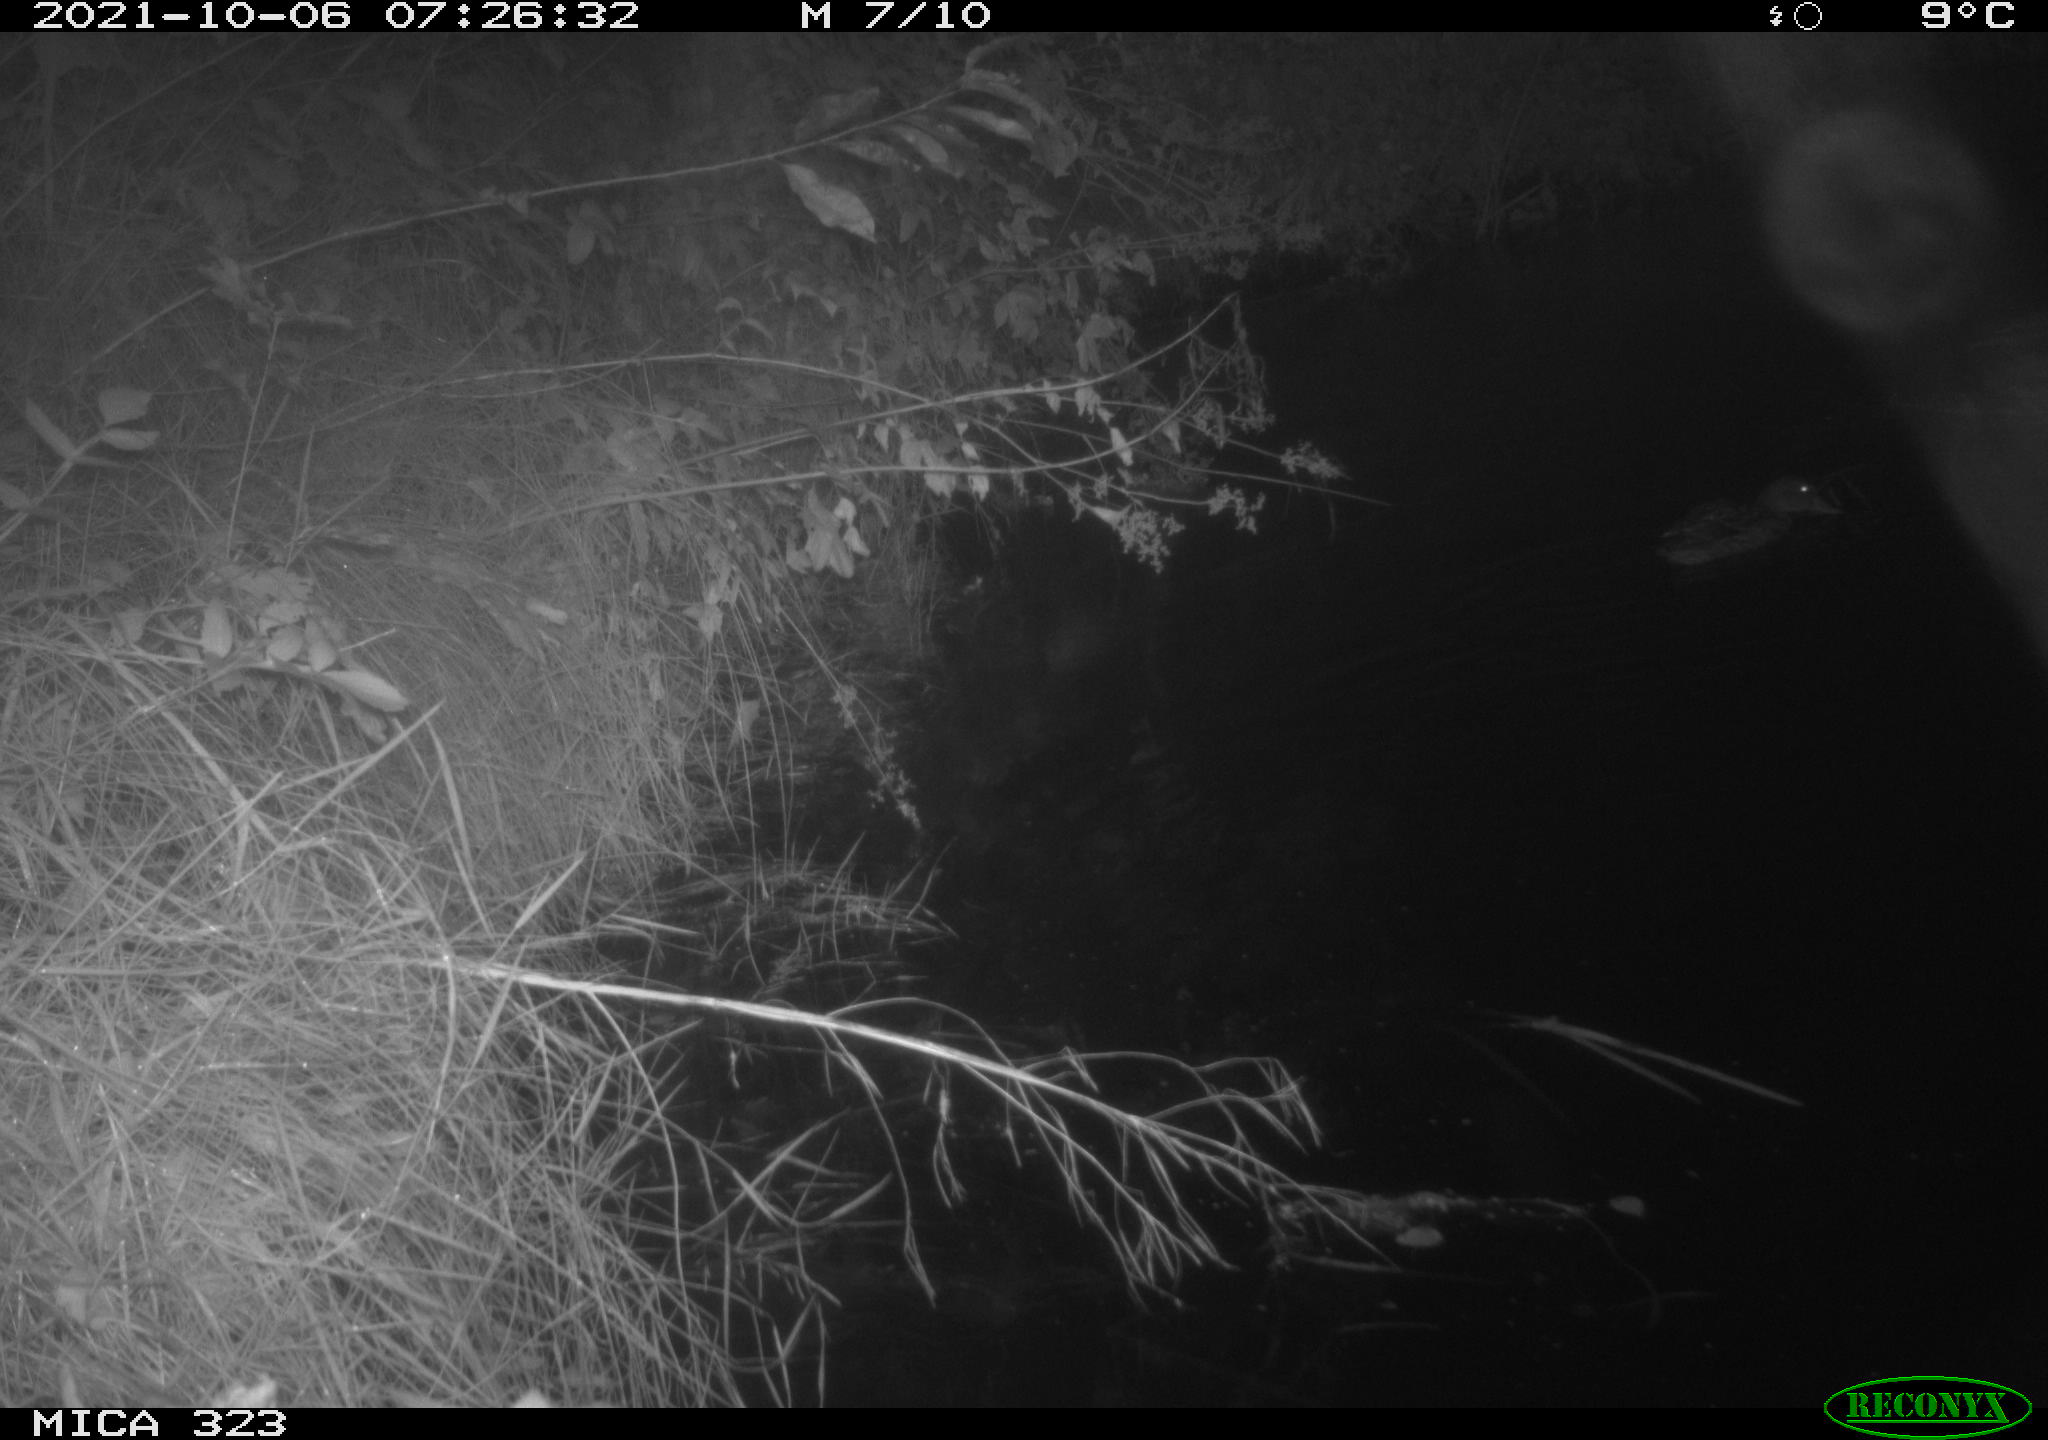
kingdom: Animalia
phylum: Chordata
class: Aves
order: Anseriformes
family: Anatidae
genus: Anas
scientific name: Anas
